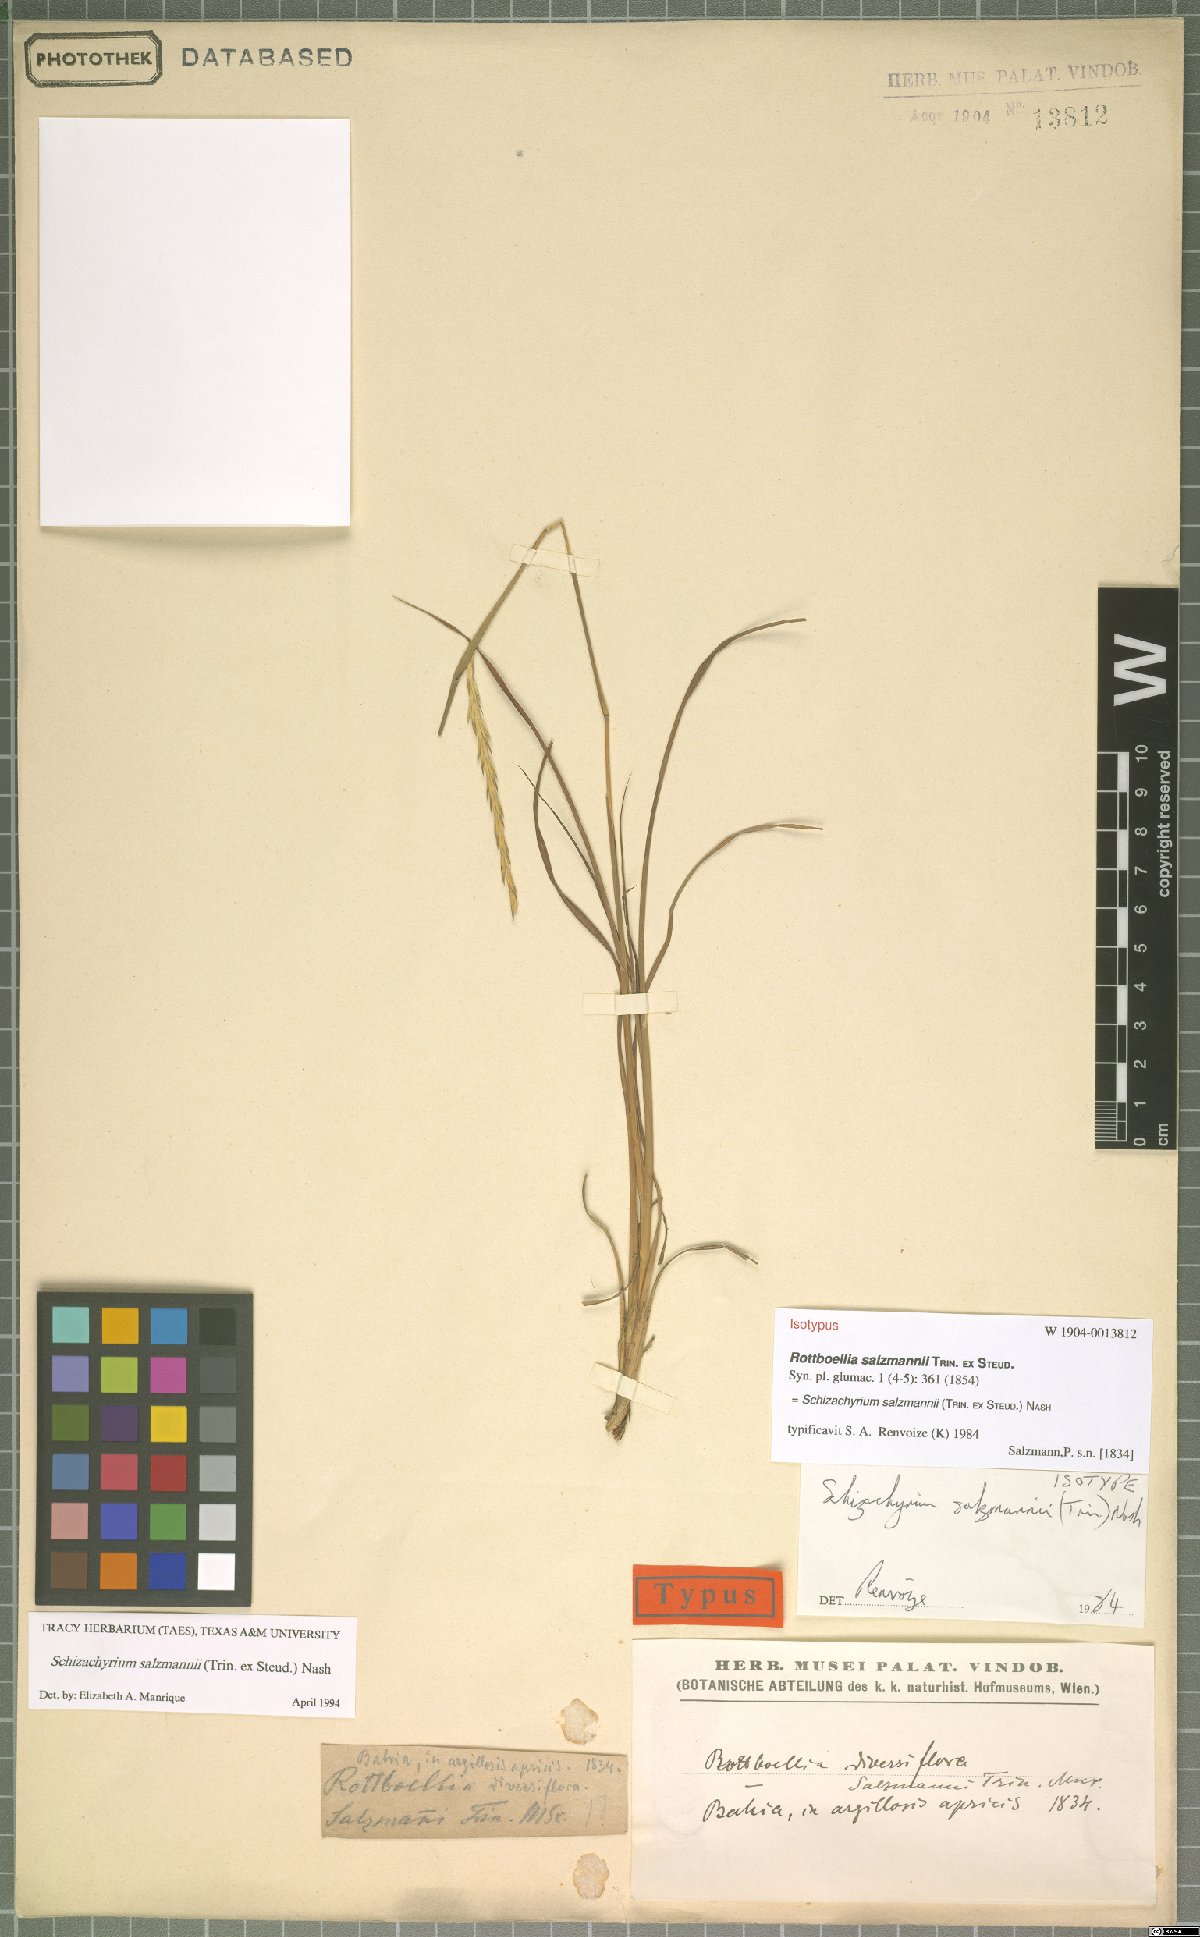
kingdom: Plantae
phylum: Tracheophyta
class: Liliopsida
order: Poales
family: Poaceae
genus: Andropogon
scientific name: Andropogon salzmannii
